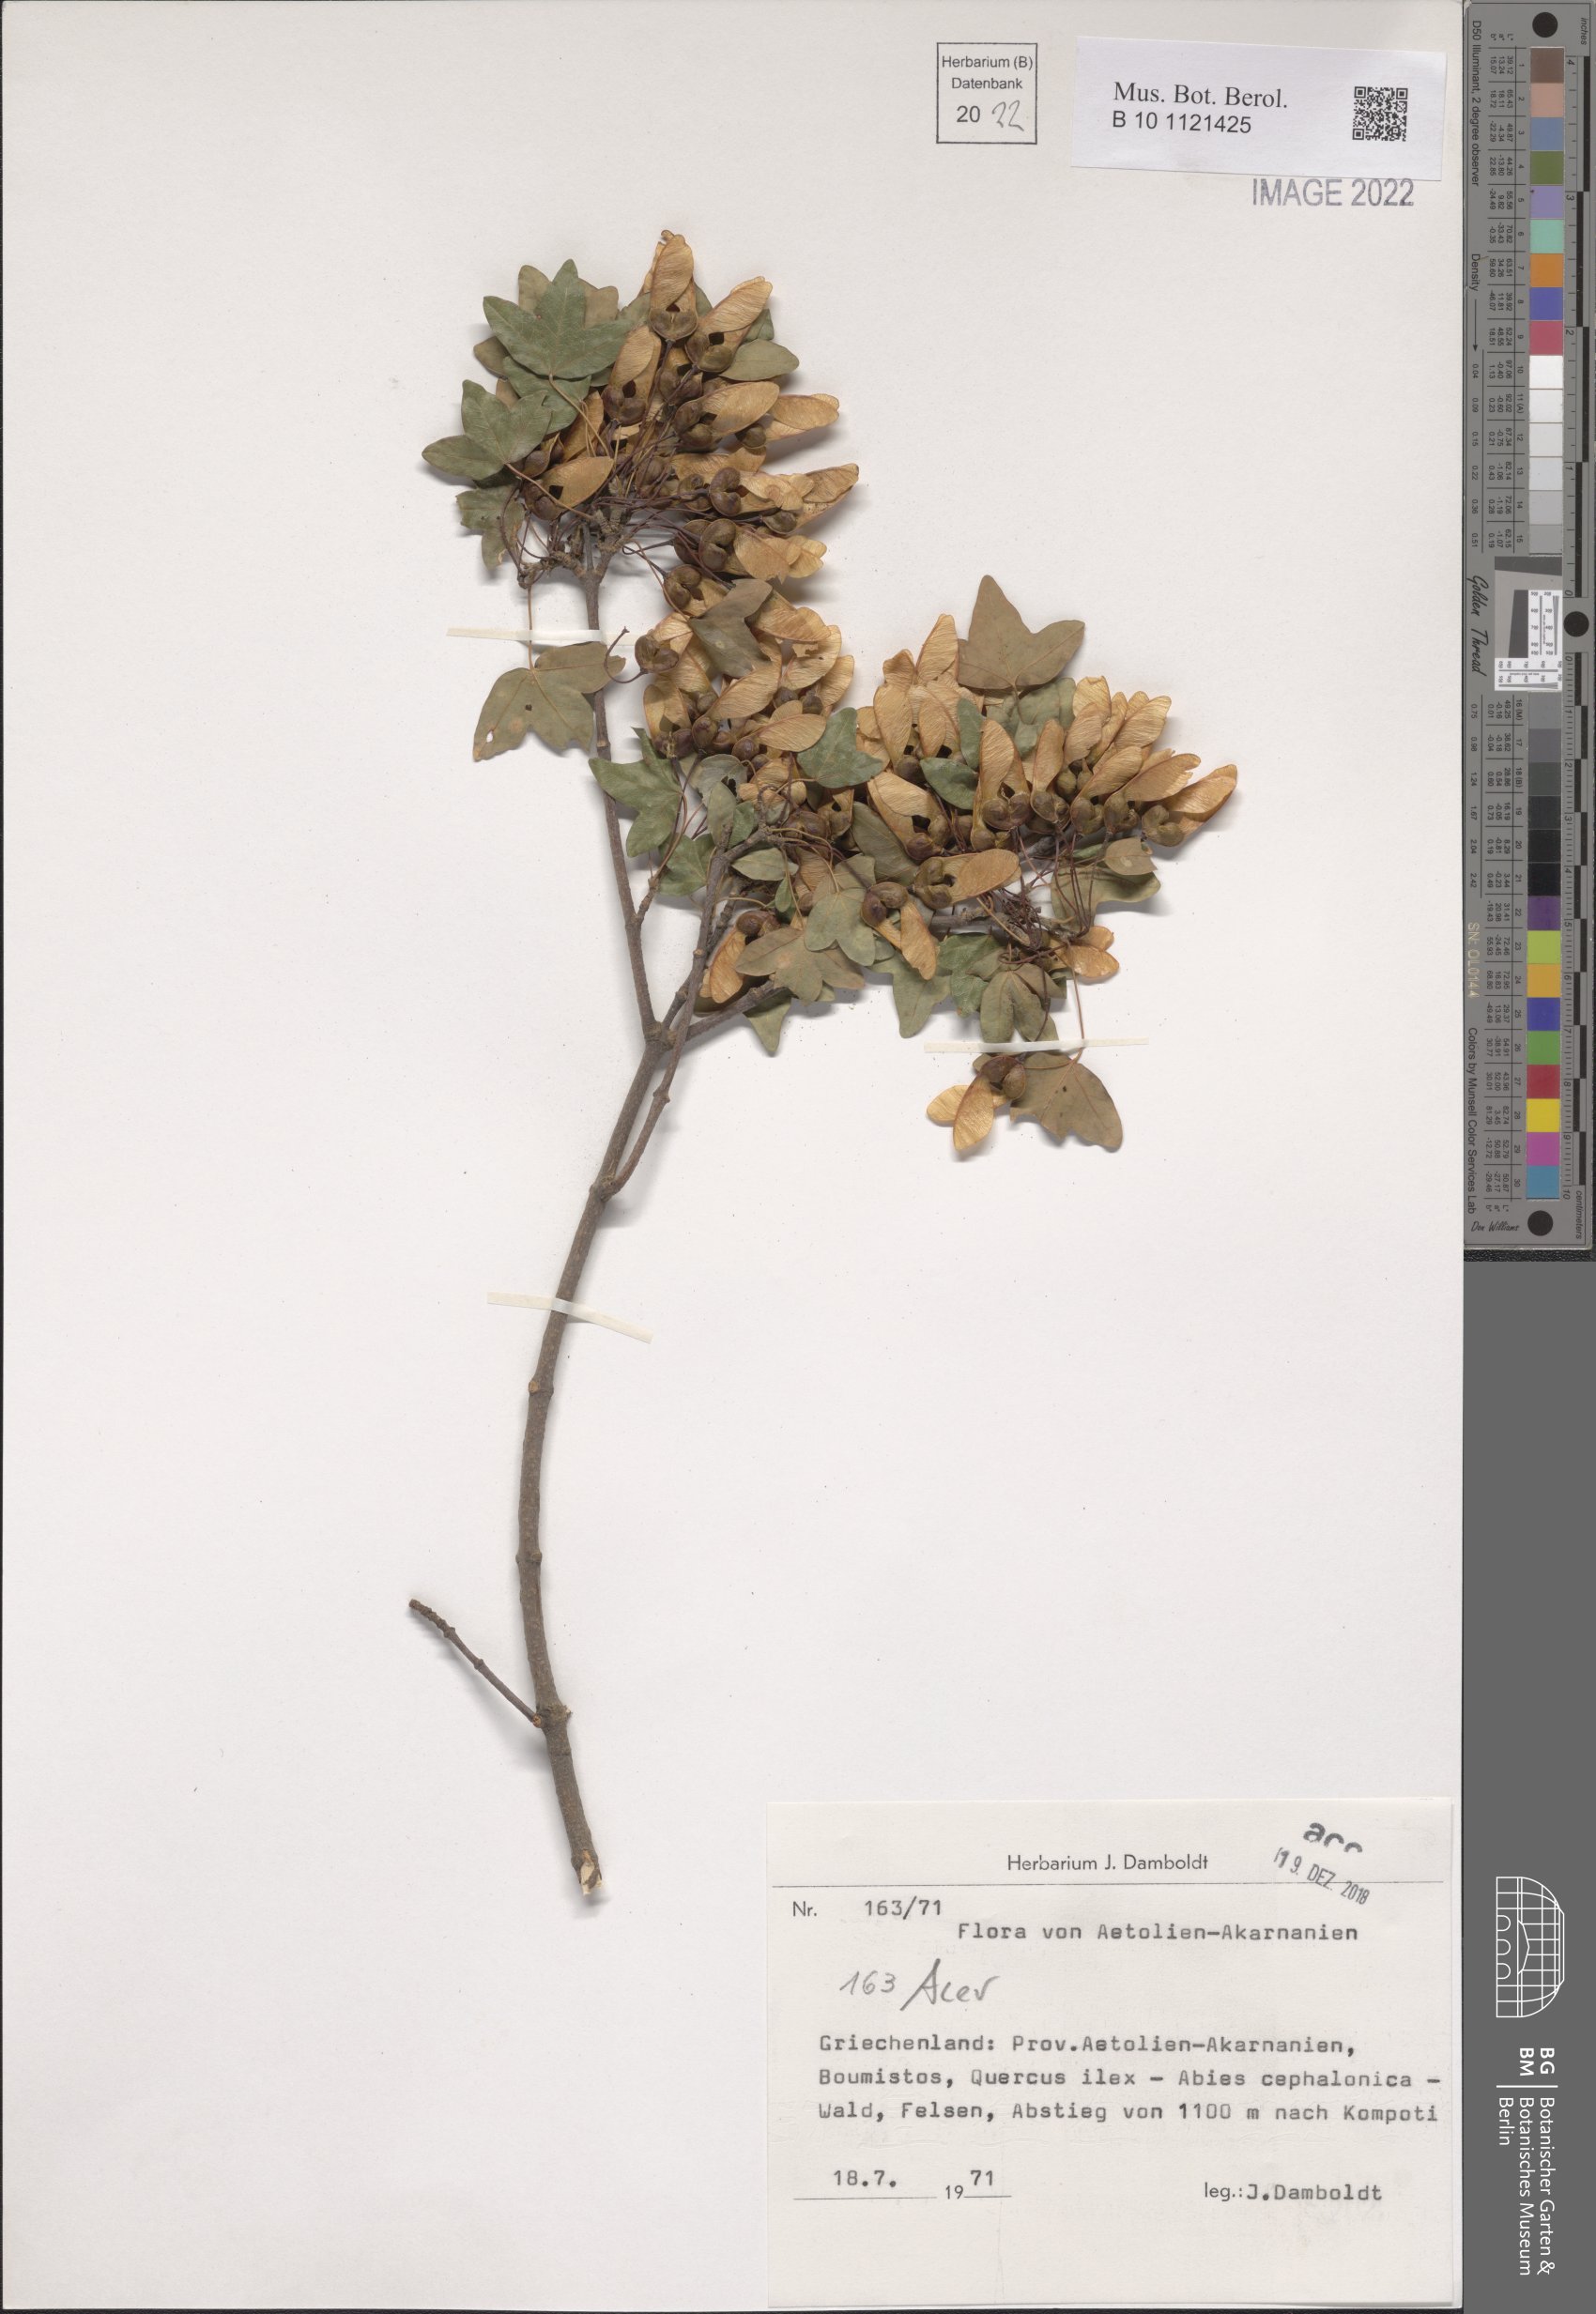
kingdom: Plantae
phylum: Tracheophyta
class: Magnoliopsida
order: Sapindales
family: Sapindaceae
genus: Acer
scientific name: Acer
